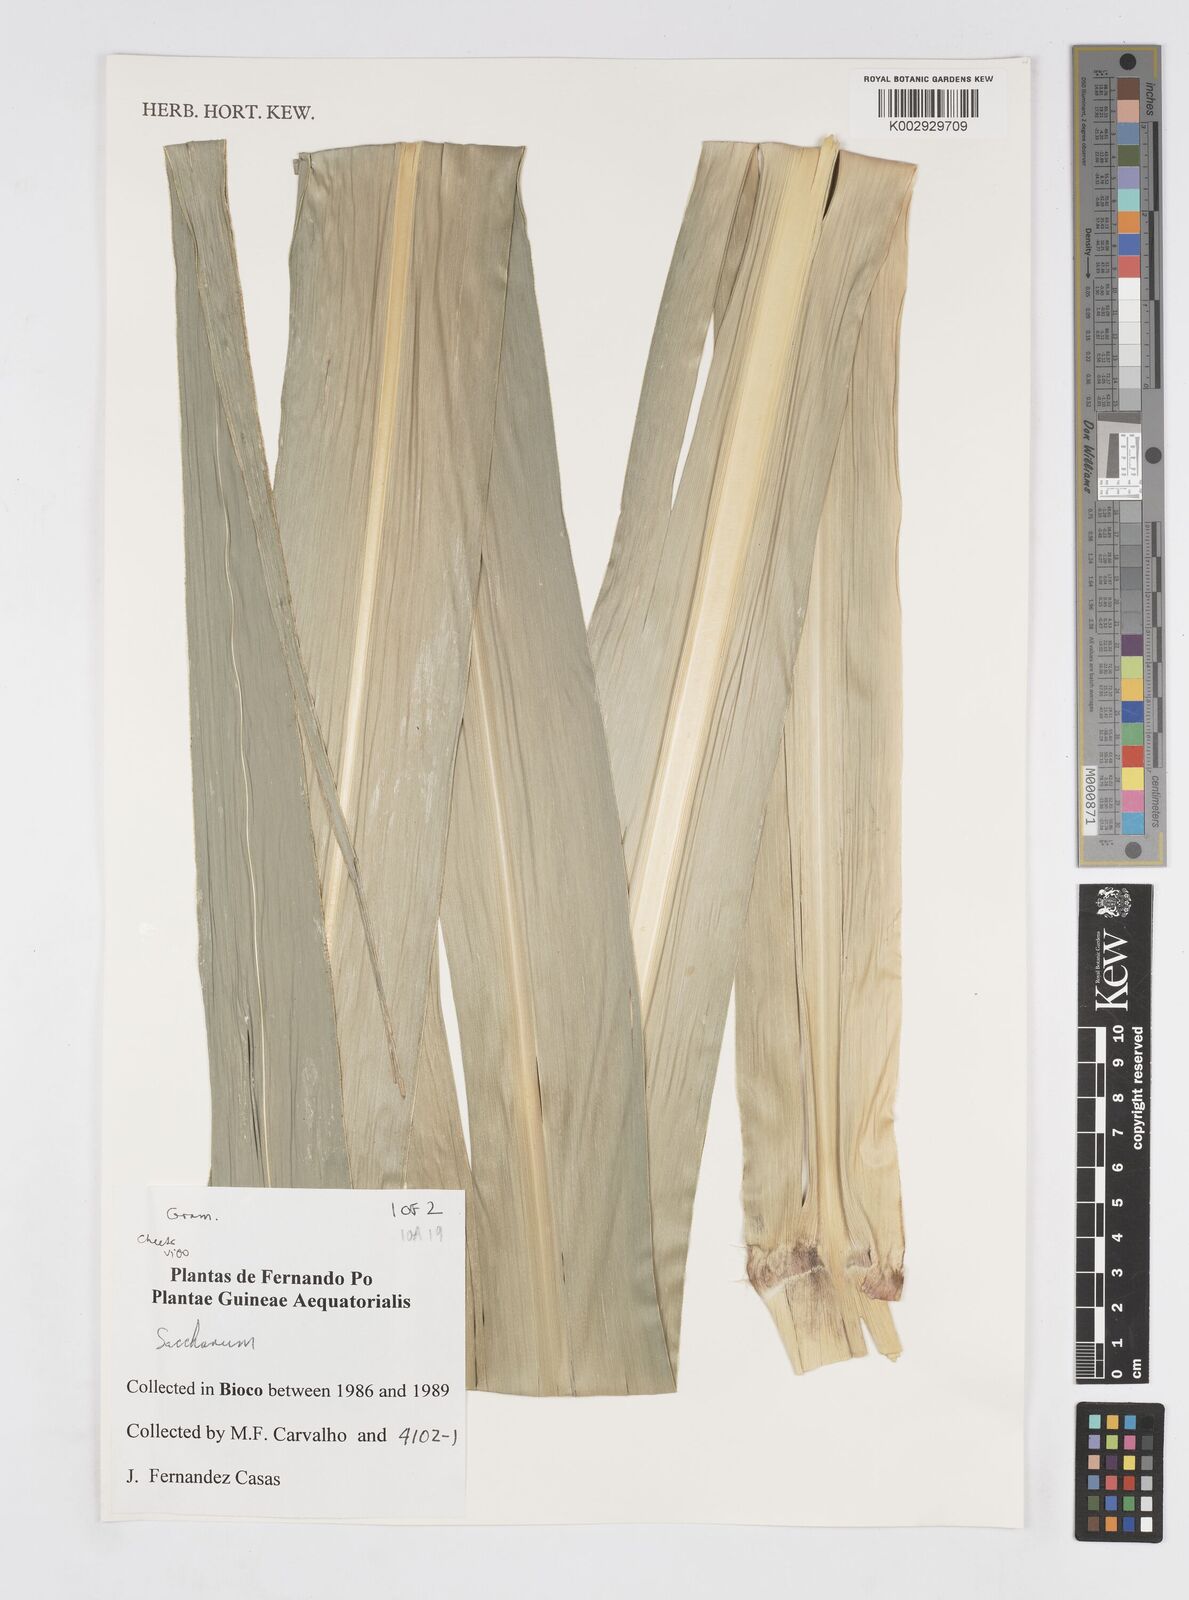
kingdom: Plantae
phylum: Tracheophyta
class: Liliopsida
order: Poales
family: Poaceae
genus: Saccharum
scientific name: Saccharum officinarum
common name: Sugarcane
